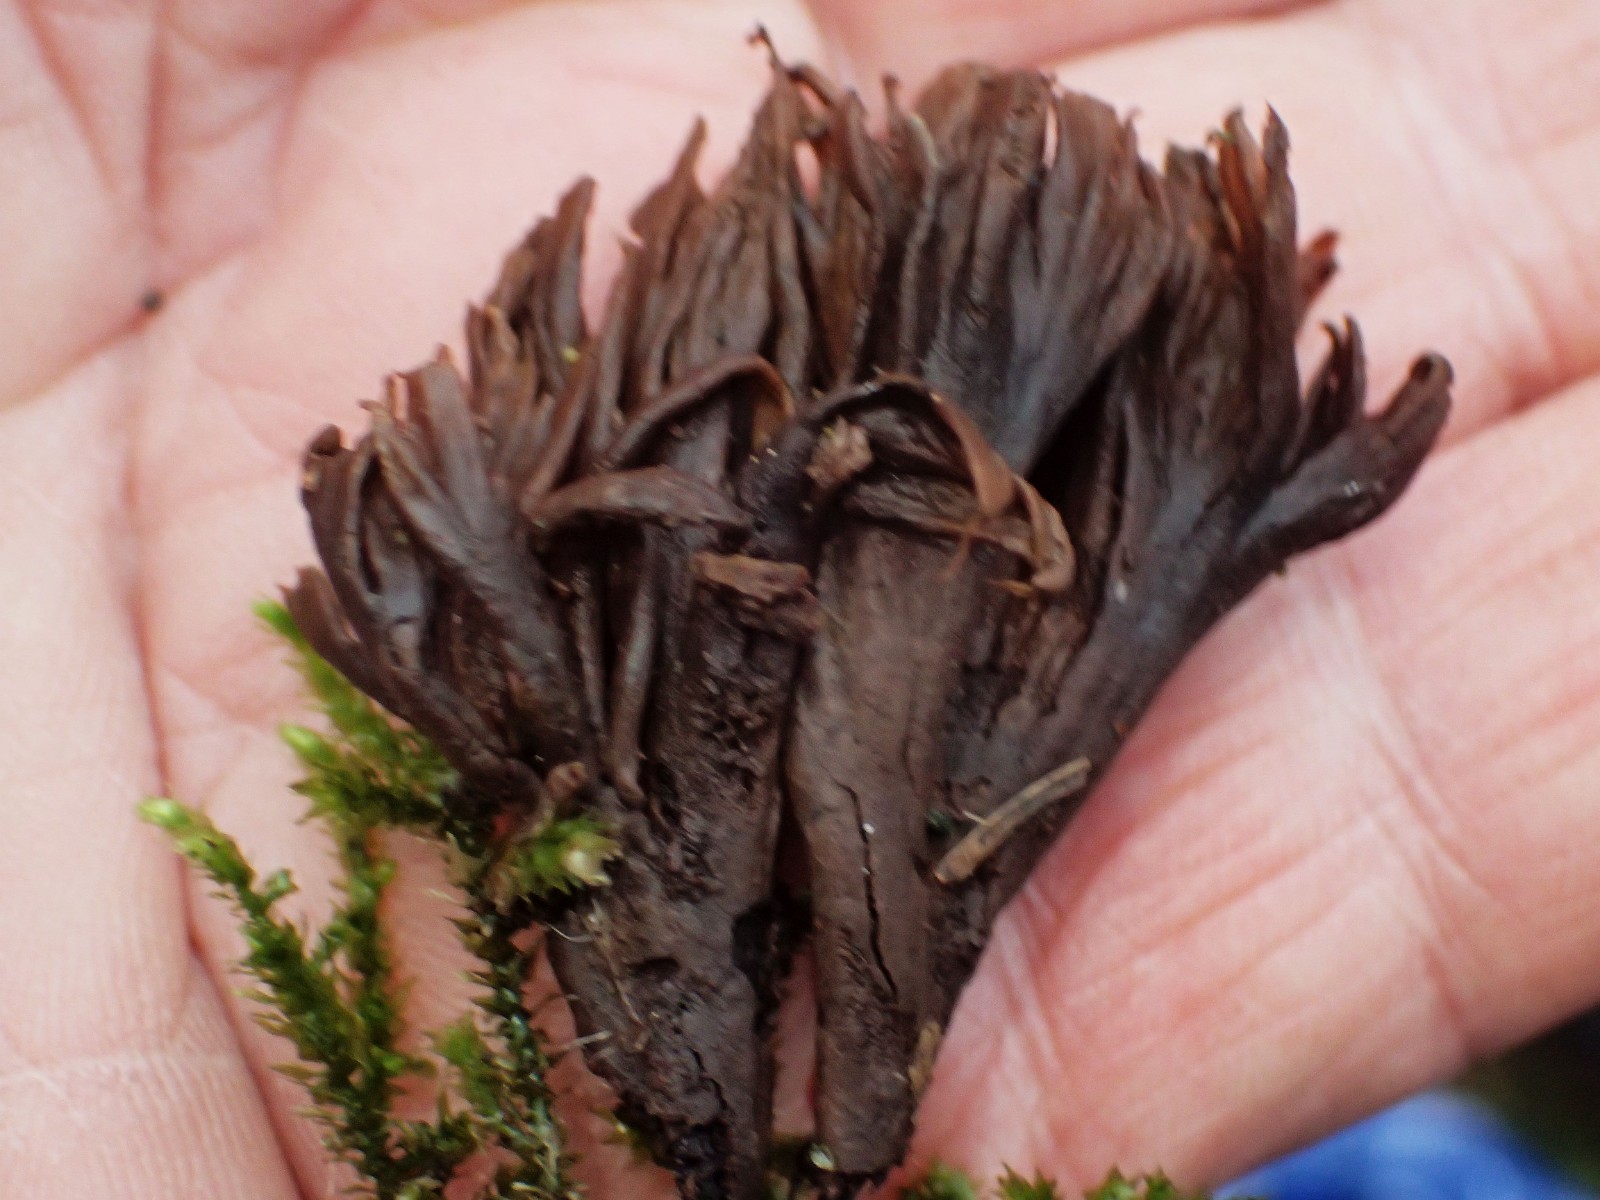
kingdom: Fungi
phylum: Basidiomycota
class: Agaricomycetes
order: Thelephorales
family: Thelephoraceae
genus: Thelephora
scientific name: Thelephora palmata
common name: grenet frynsesvamp
